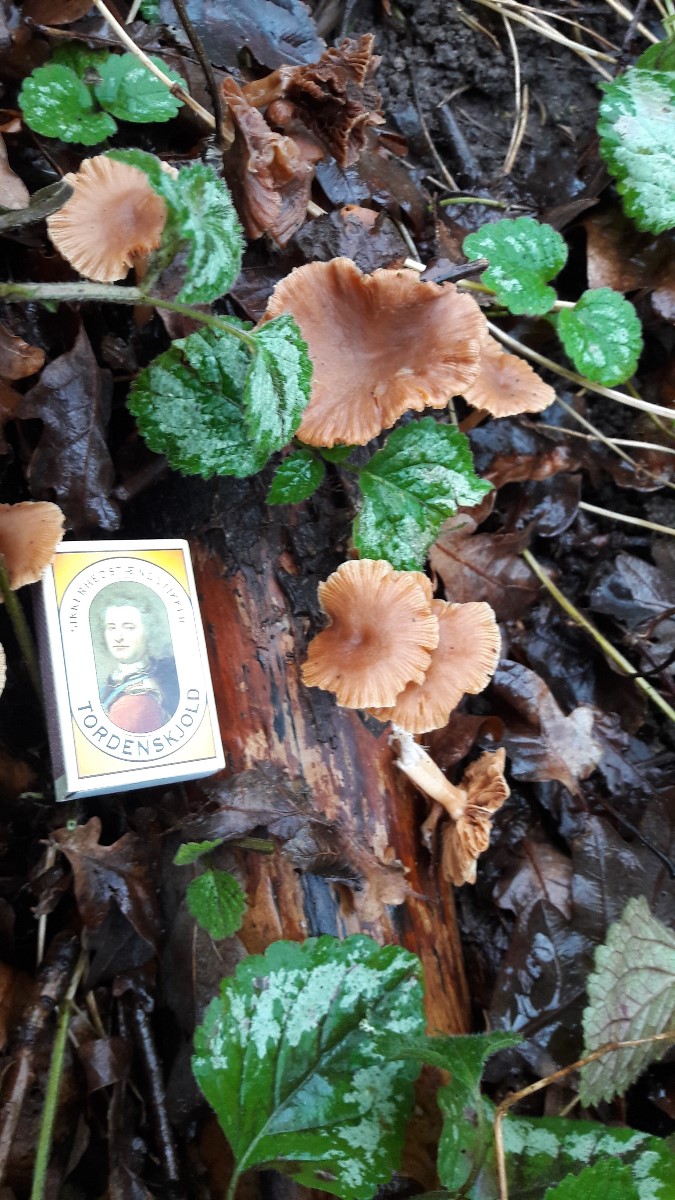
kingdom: Fungi
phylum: Basidiomycota
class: Agaricomycetes
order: Agaricales
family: Tubariaceae
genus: Tubaria
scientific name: Tubaria
